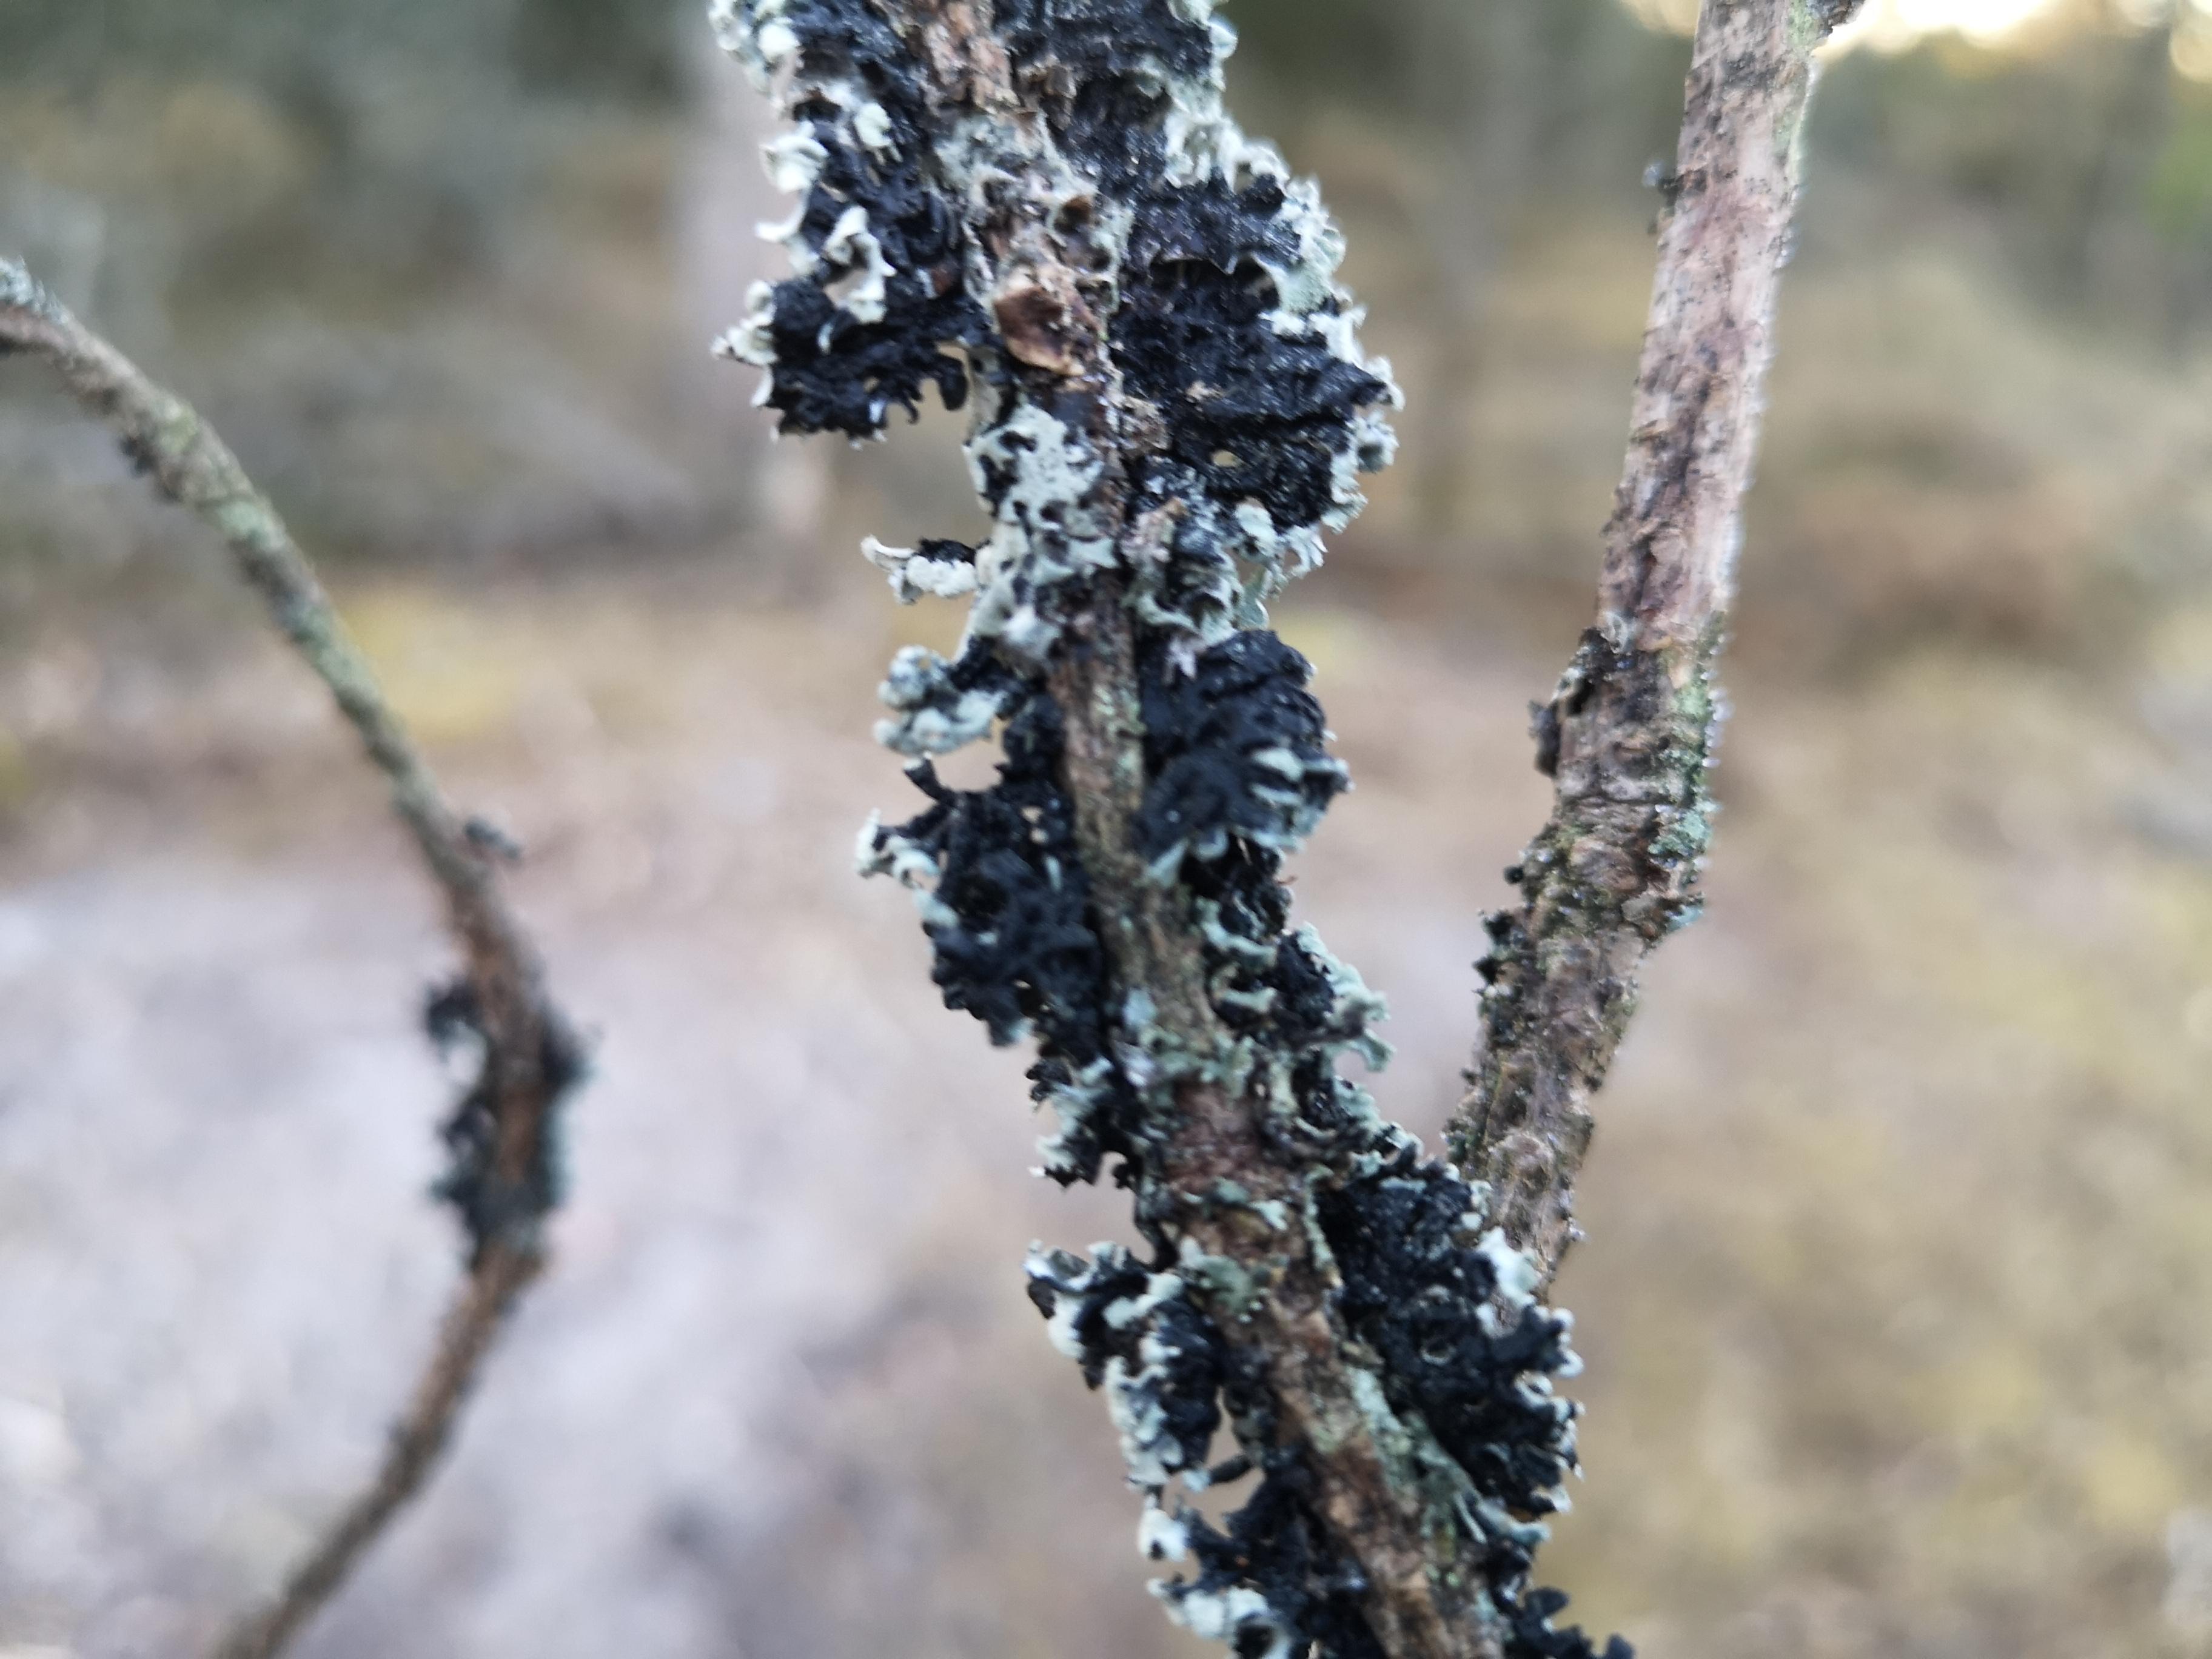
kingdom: Fungi
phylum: Ascomycota
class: Lecanoromycetes
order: Lecanorales
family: Parmeliaceae
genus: Hypogymnia
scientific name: Hypogymnia physodes
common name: almindelig kvistlav
